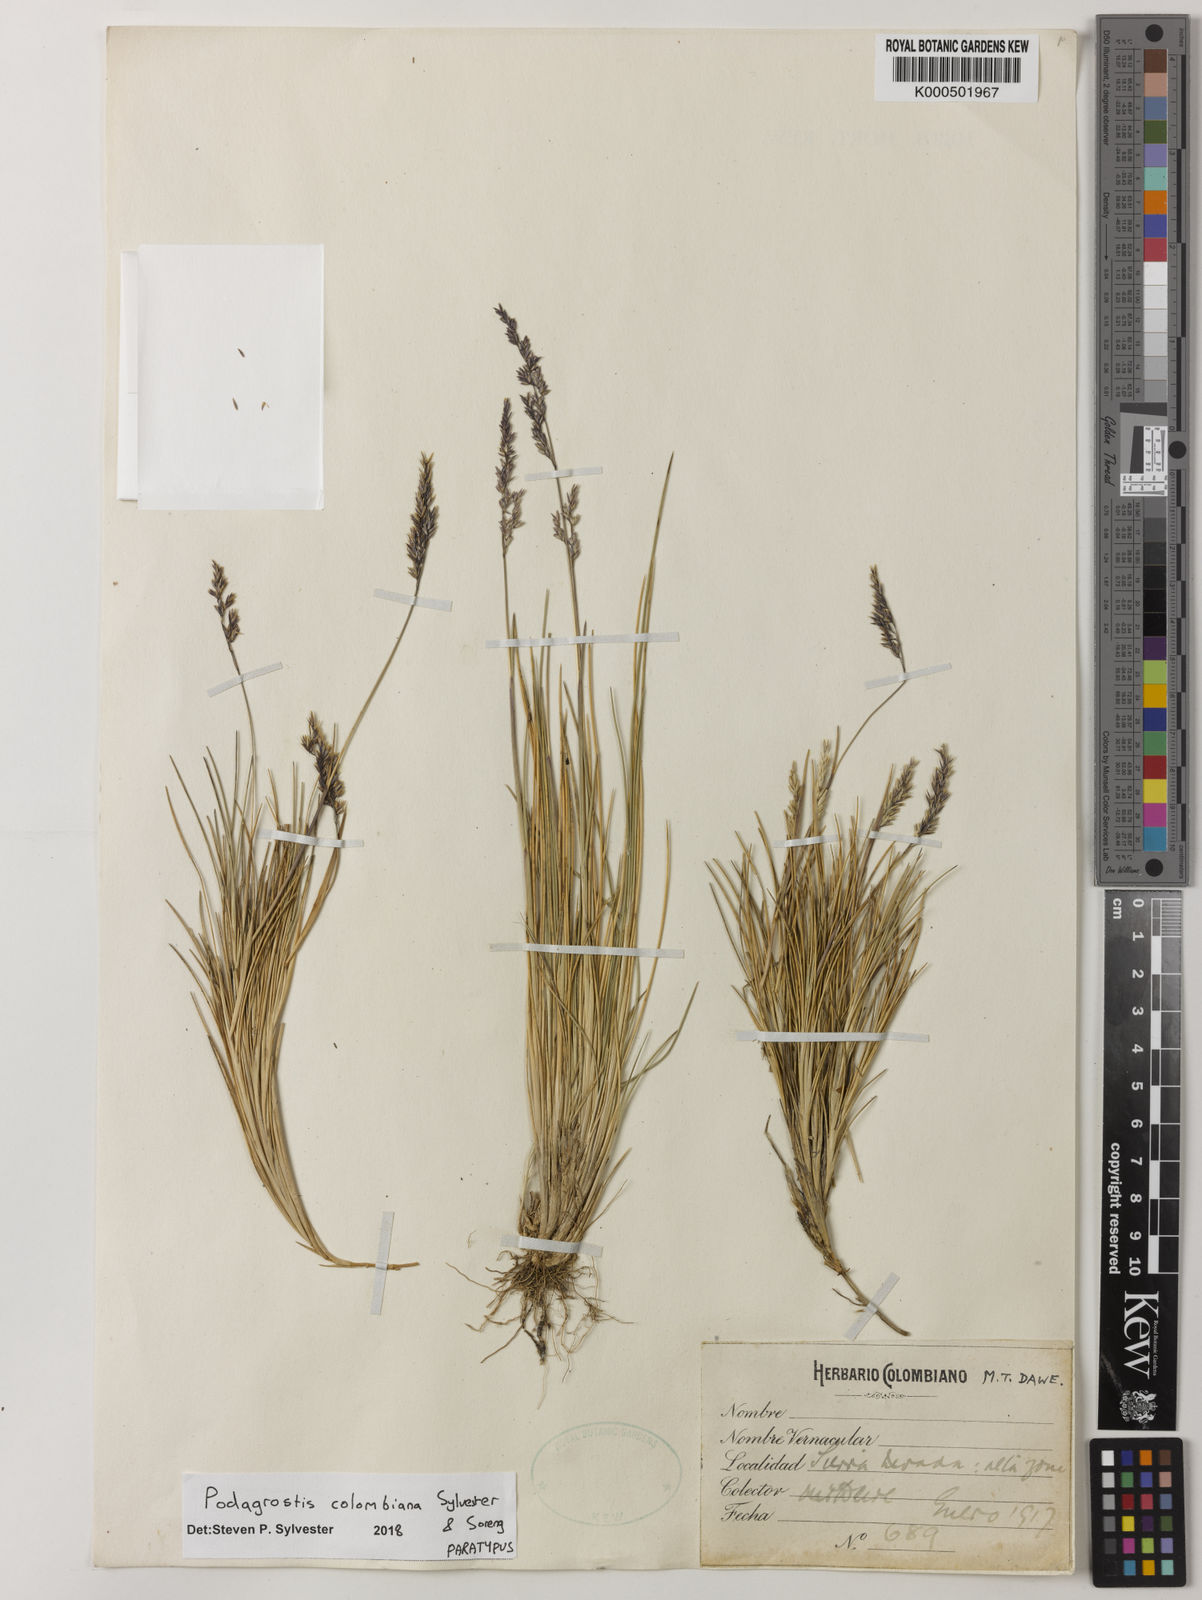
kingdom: Plantae
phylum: Tracheophyta
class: Liliopsida
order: Poales
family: Poaceae
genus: Podagrostis
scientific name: Podagrostis
